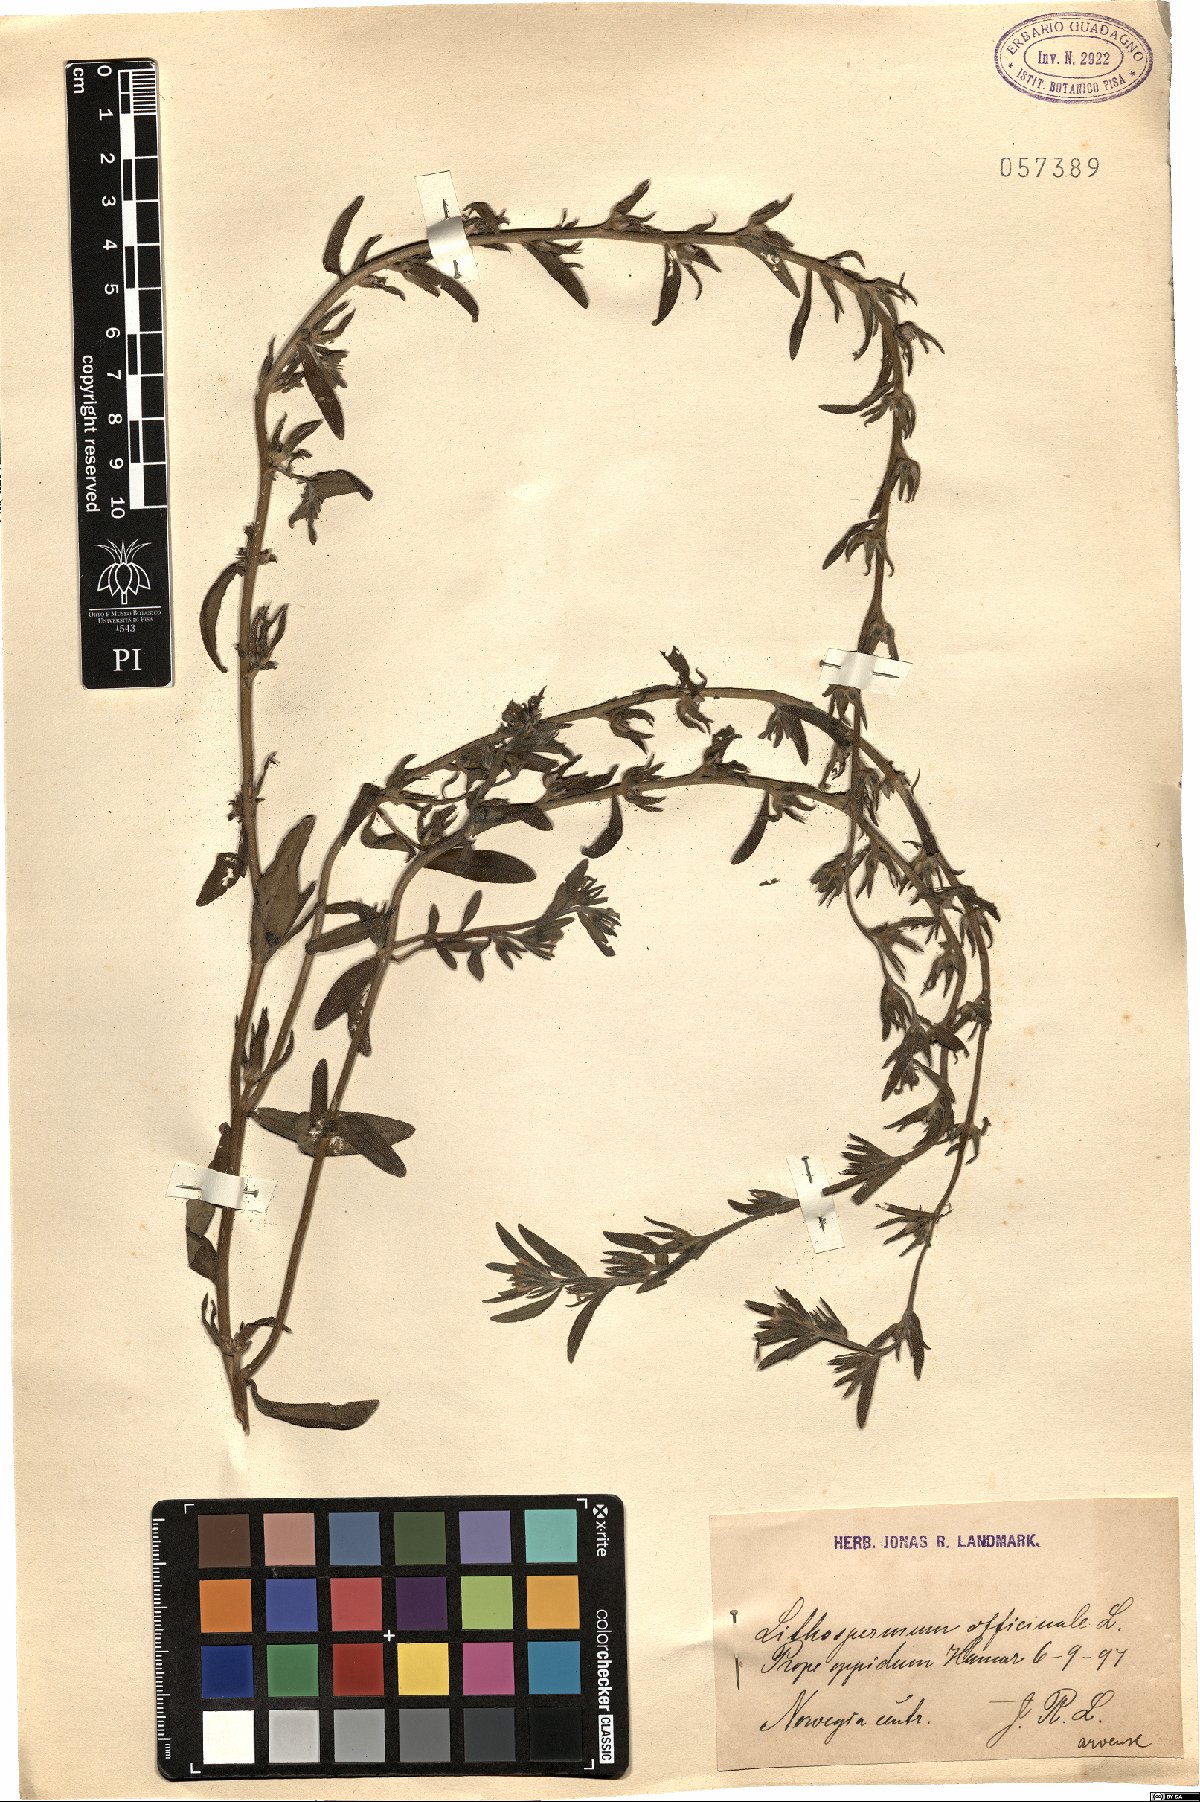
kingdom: Plantae
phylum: Tracheophyta
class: Magnoliopsida
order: Boraginales
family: Boraginaceae
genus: Lithospermum
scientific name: Lithospermum officinale
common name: Common gromwell
